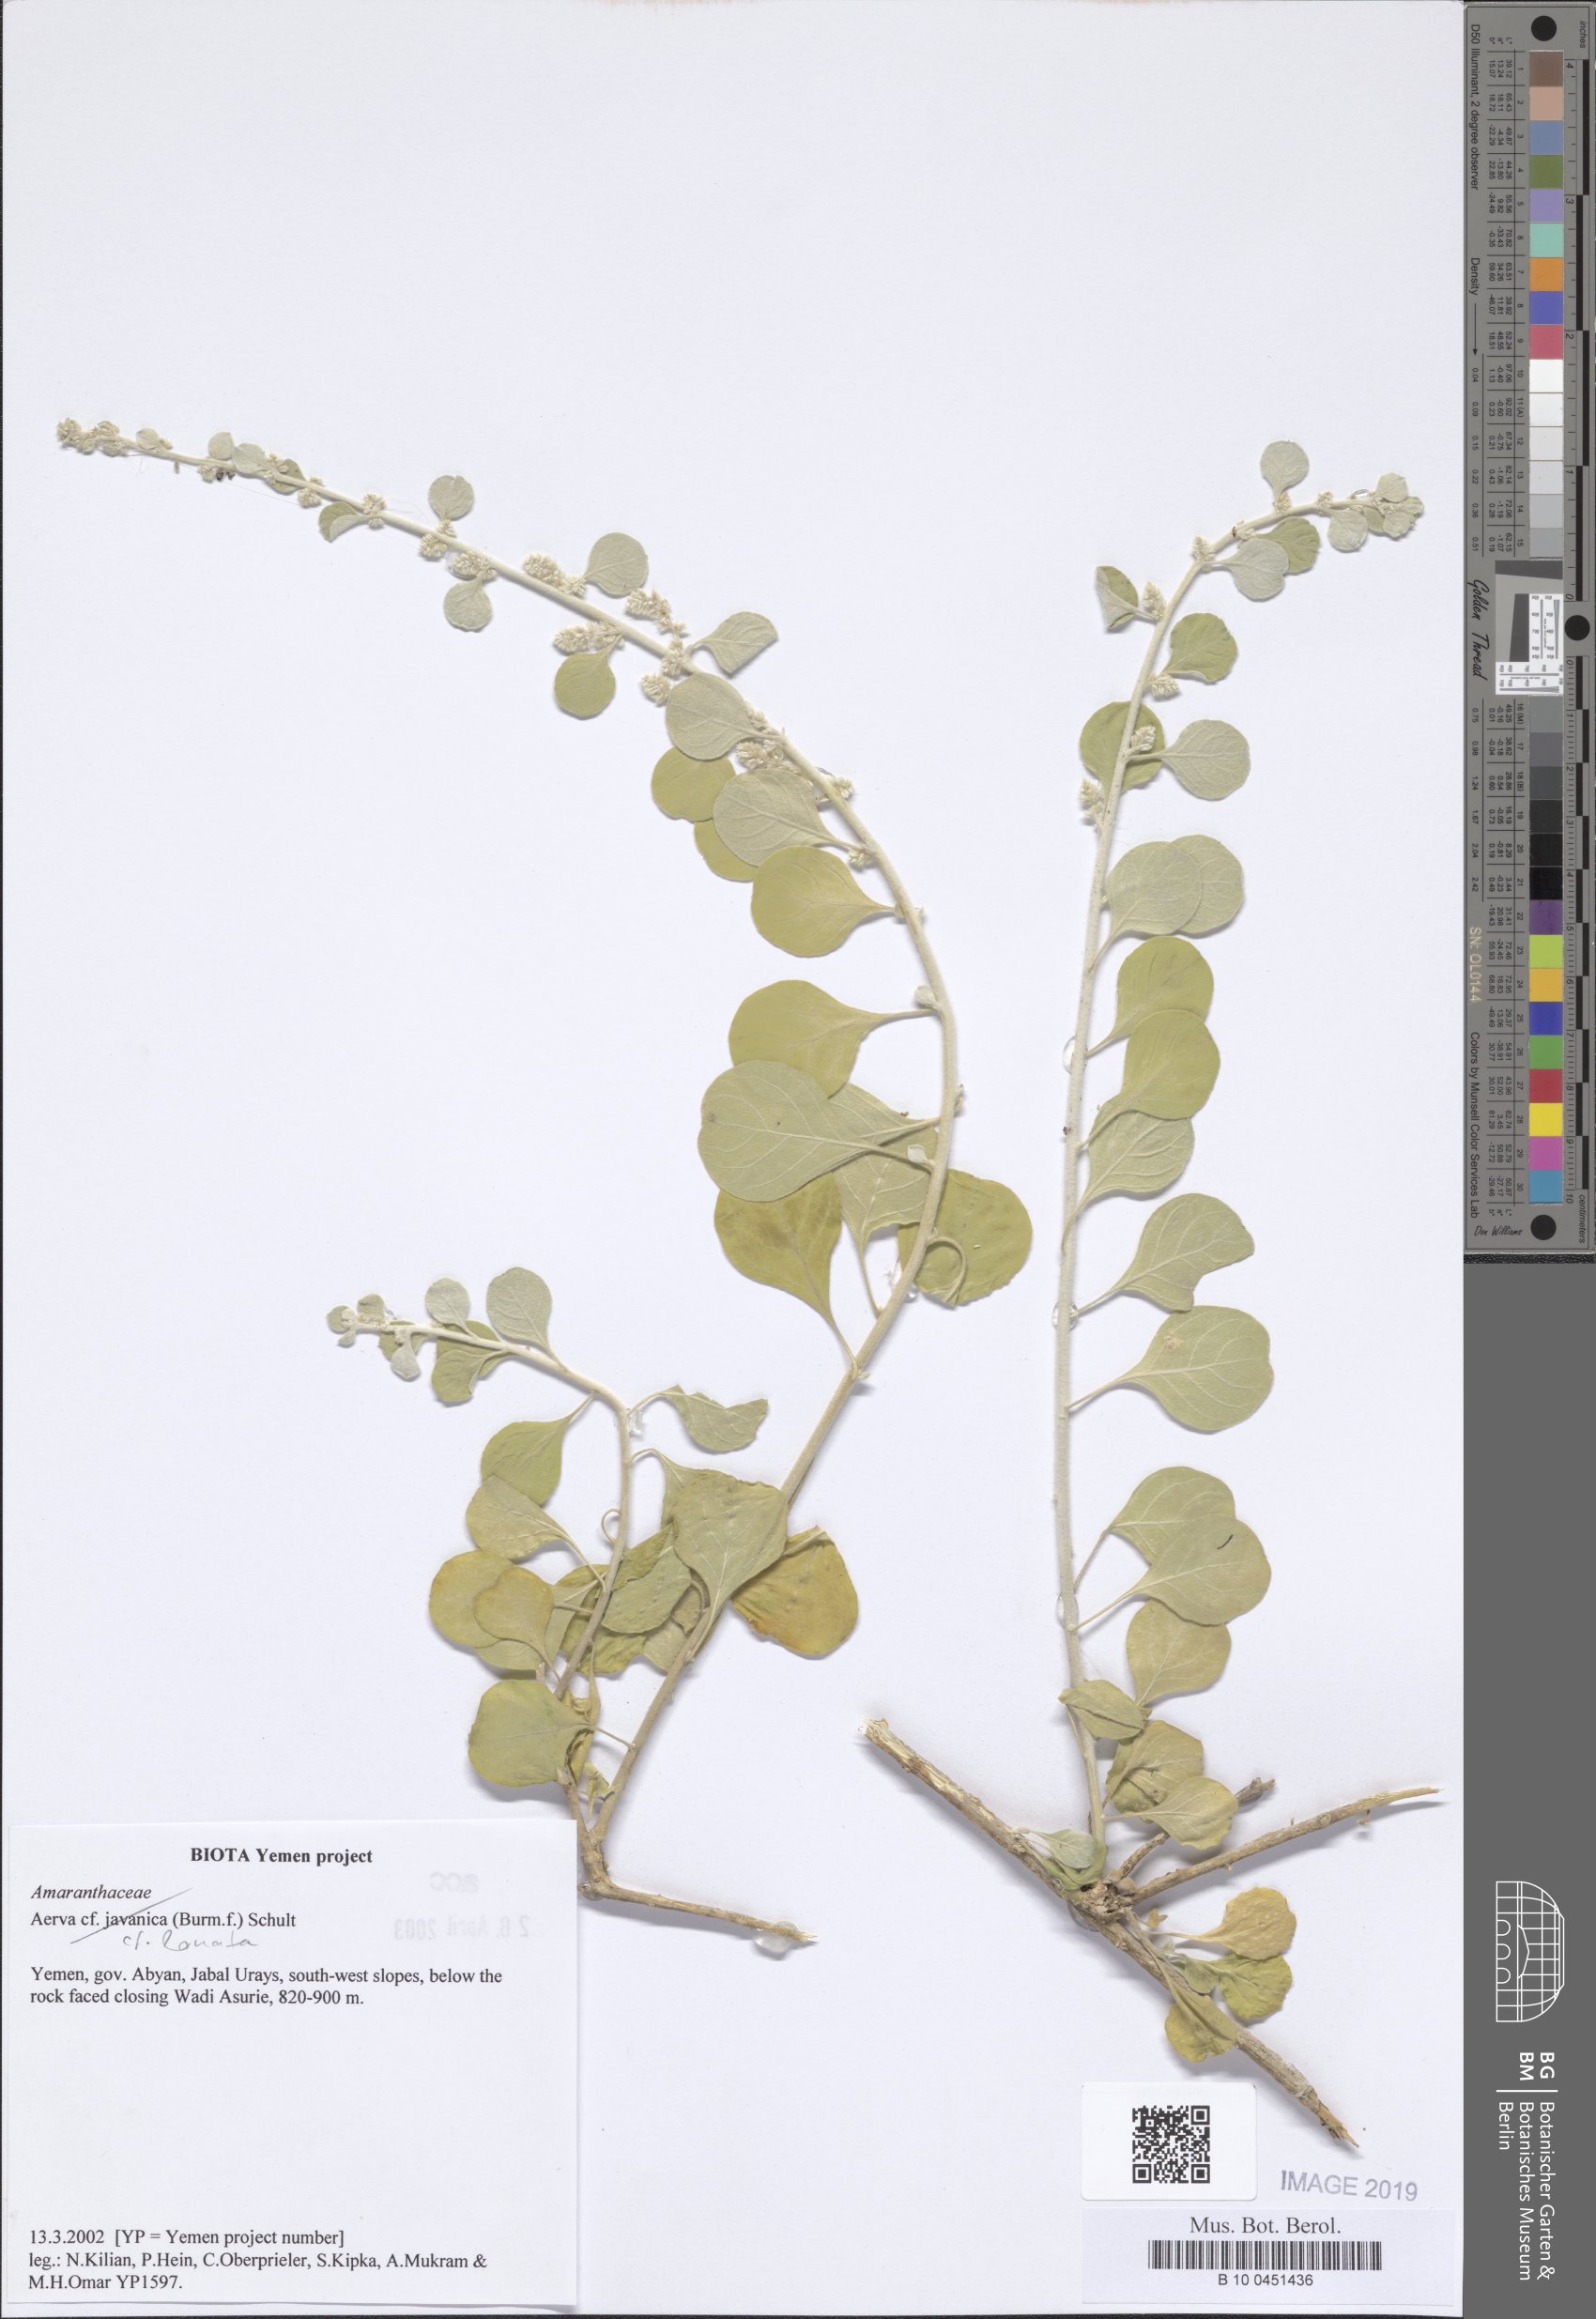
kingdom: Plantae
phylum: Tracheophyta
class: Magnoliopsida
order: Caryophyllales
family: Amaranthaceae
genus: Aerva
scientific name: Aerva javanica
